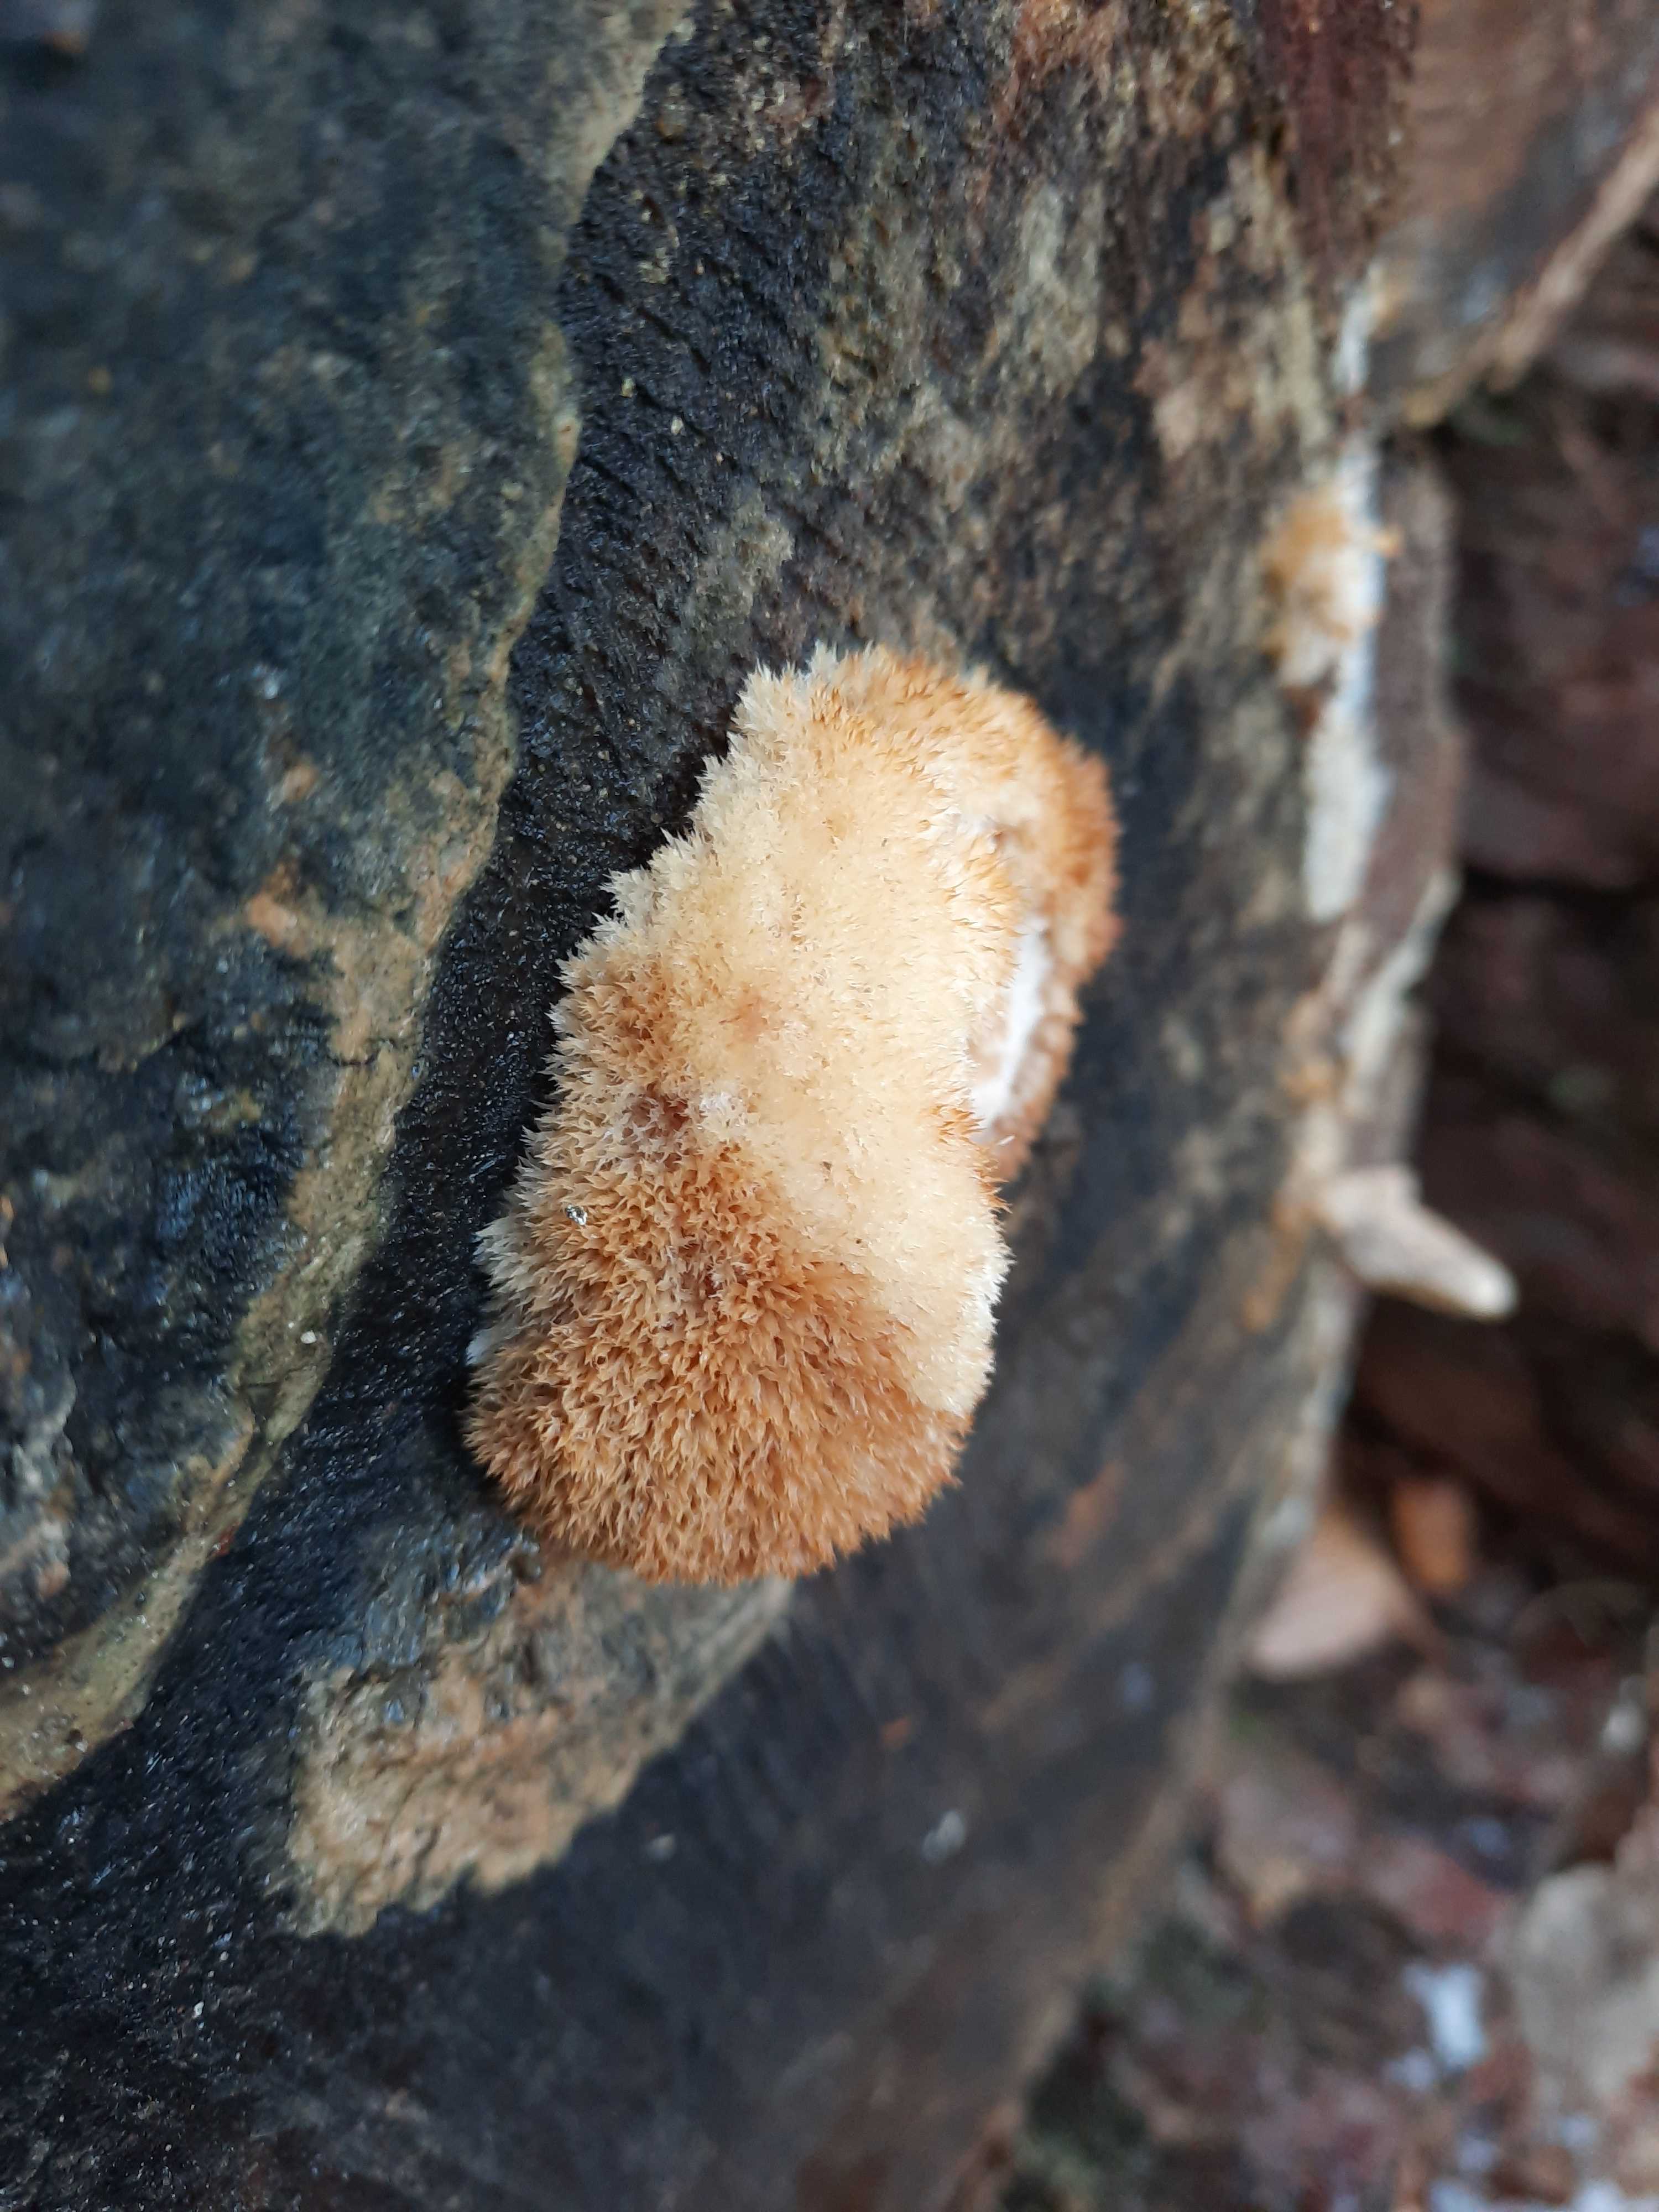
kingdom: Fungi
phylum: Basidiomycota
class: Agaricomycetes
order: Polyporales
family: Dacryobolaceae
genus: Postia
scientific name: Postia ptychogaster
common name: støvende kødporesvamp
